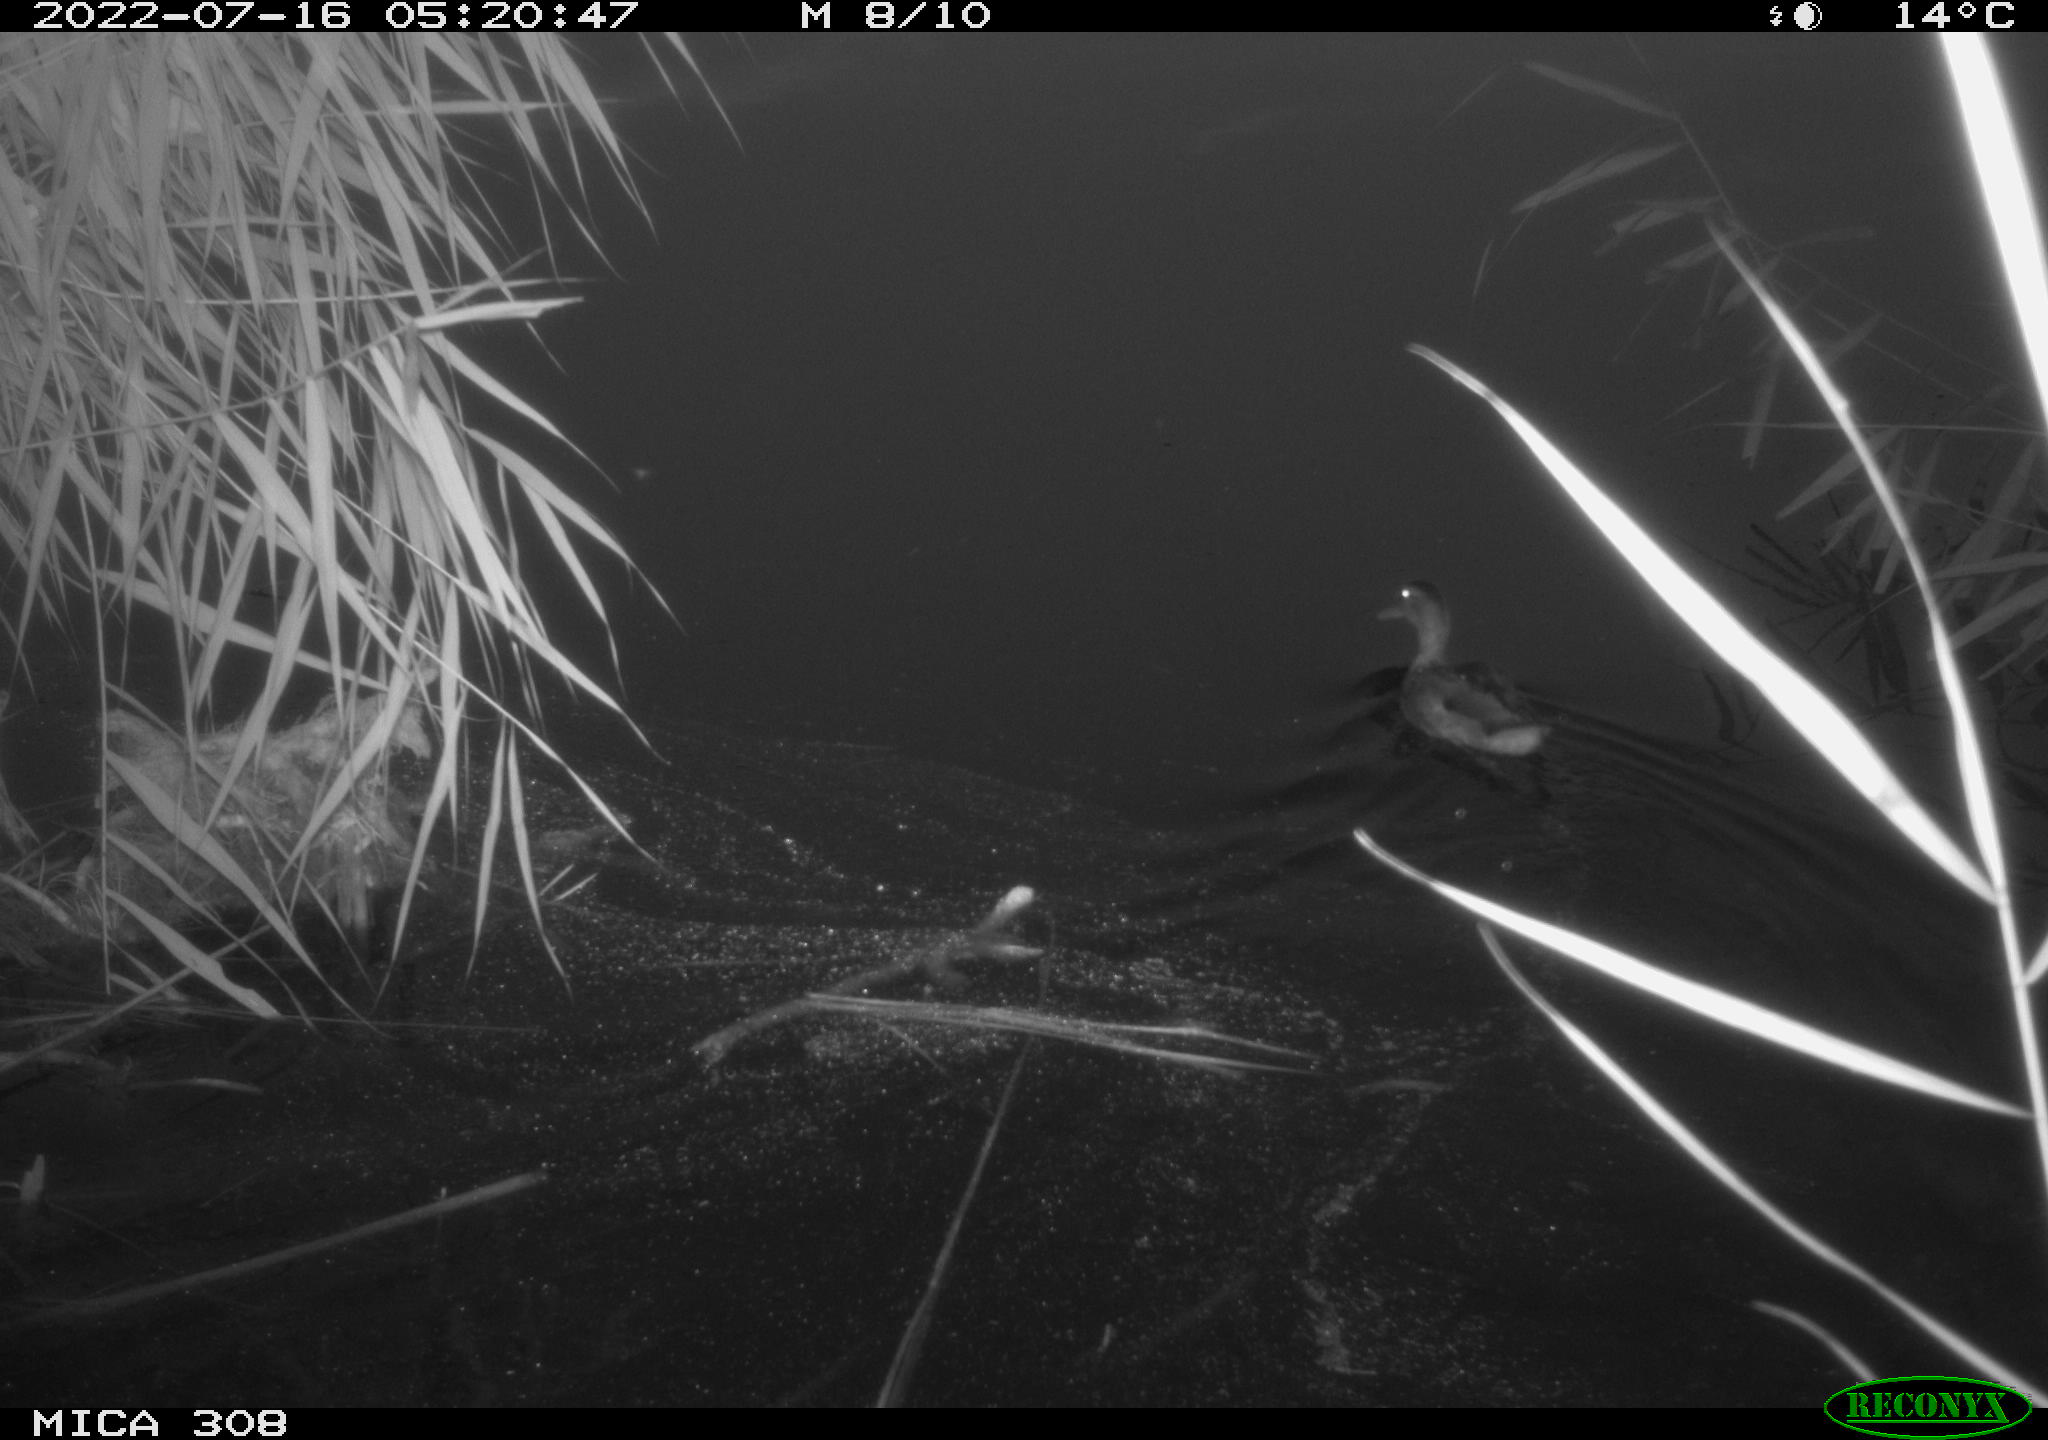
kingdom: Animalia
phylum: Chordata
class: Aves
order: Anseriformes
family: Anatidae
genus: Anas
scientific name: Anas platyrhynchos
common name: Mallard
